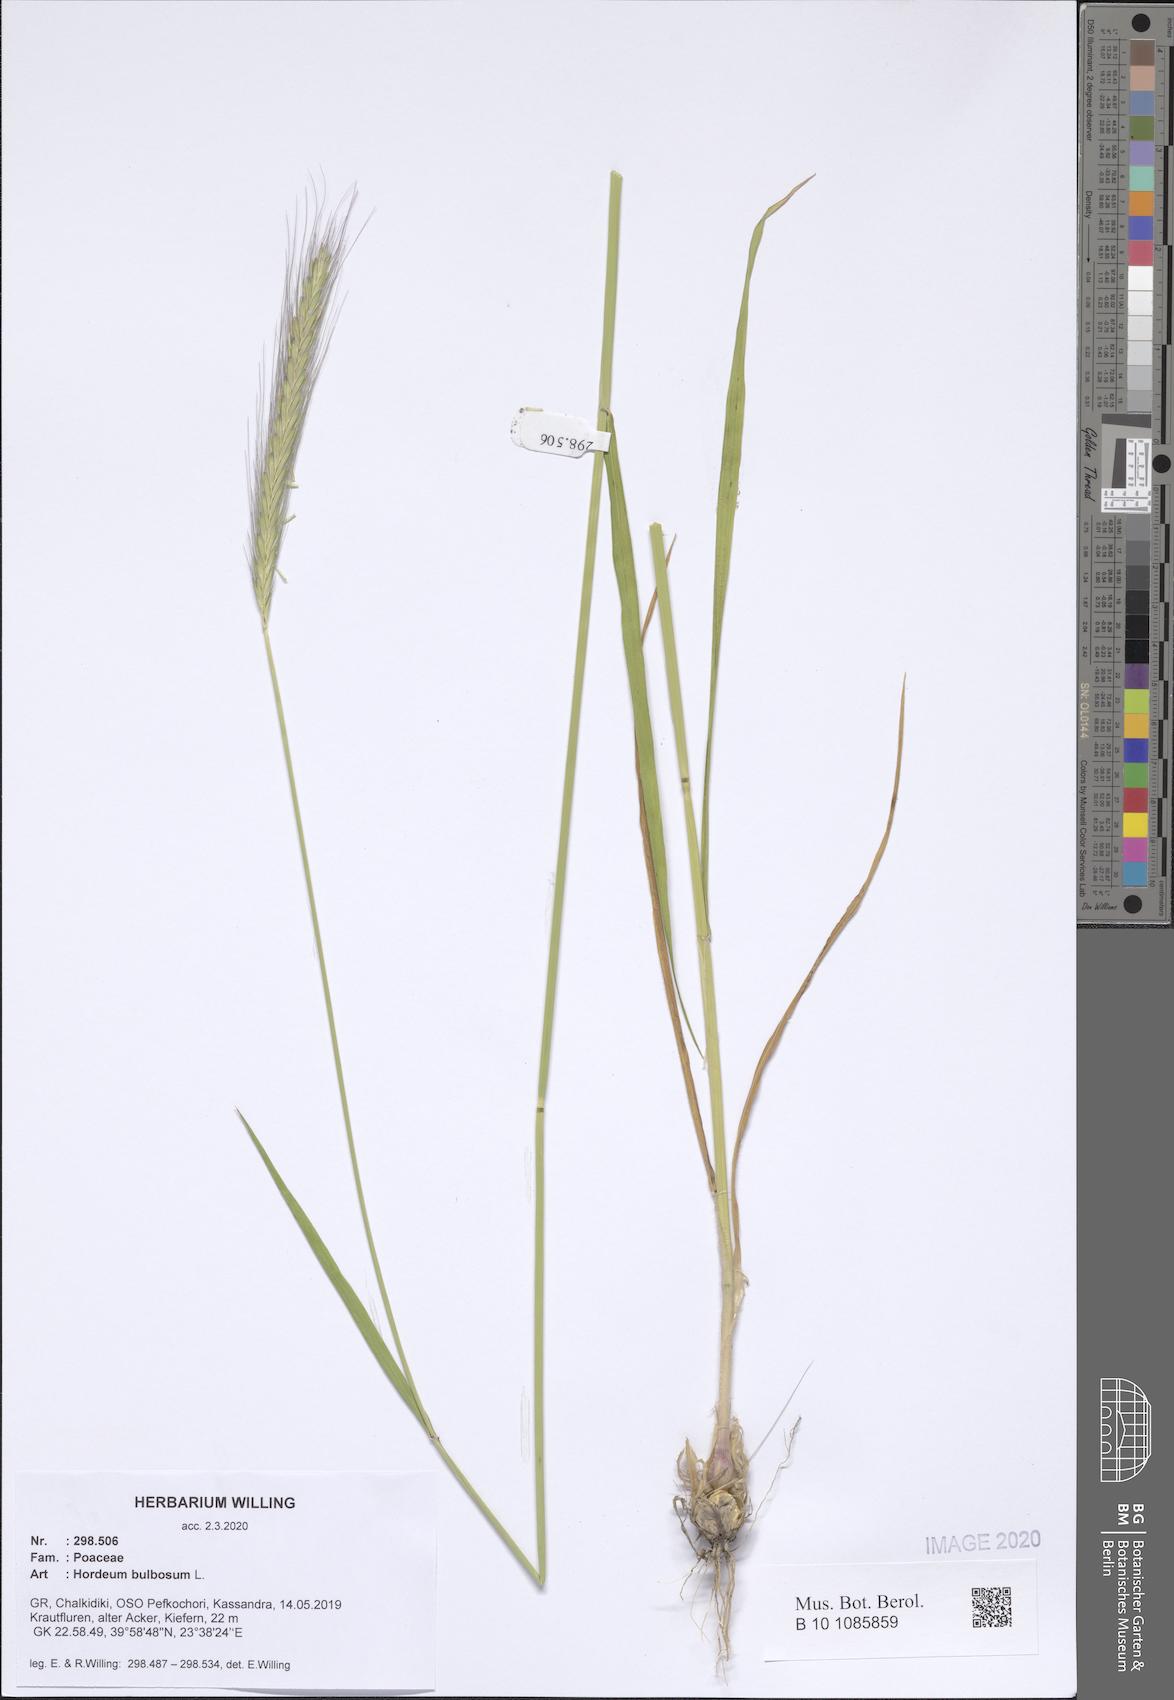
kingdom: Plantae
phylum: Tracheophyta
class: Liliopsida
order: Poales
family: Poaceae
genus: Hordeum
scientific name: Hordeum bulbosum
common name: Bulbous barley
